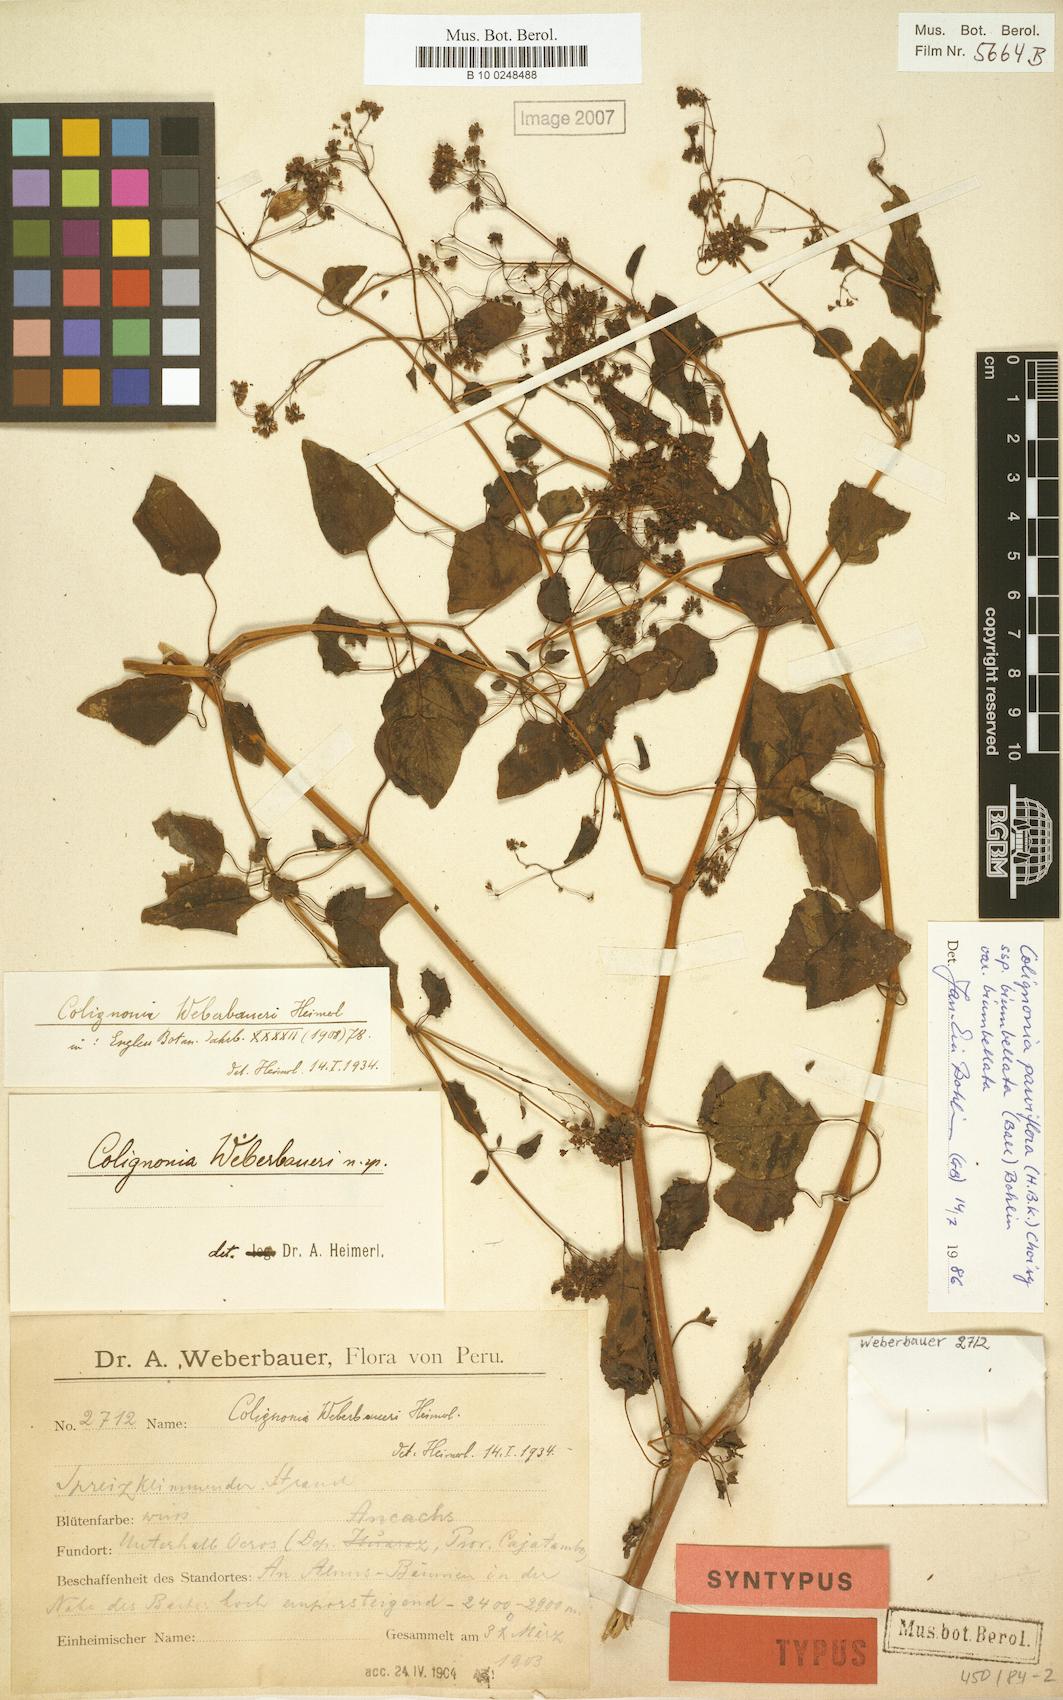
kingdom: Plantae
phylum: Tracheophyta
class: Magnoliopsida
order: Caryophyllales
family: Nyctaginaceae
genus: Colignonia
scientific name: Colignonia parviflora
